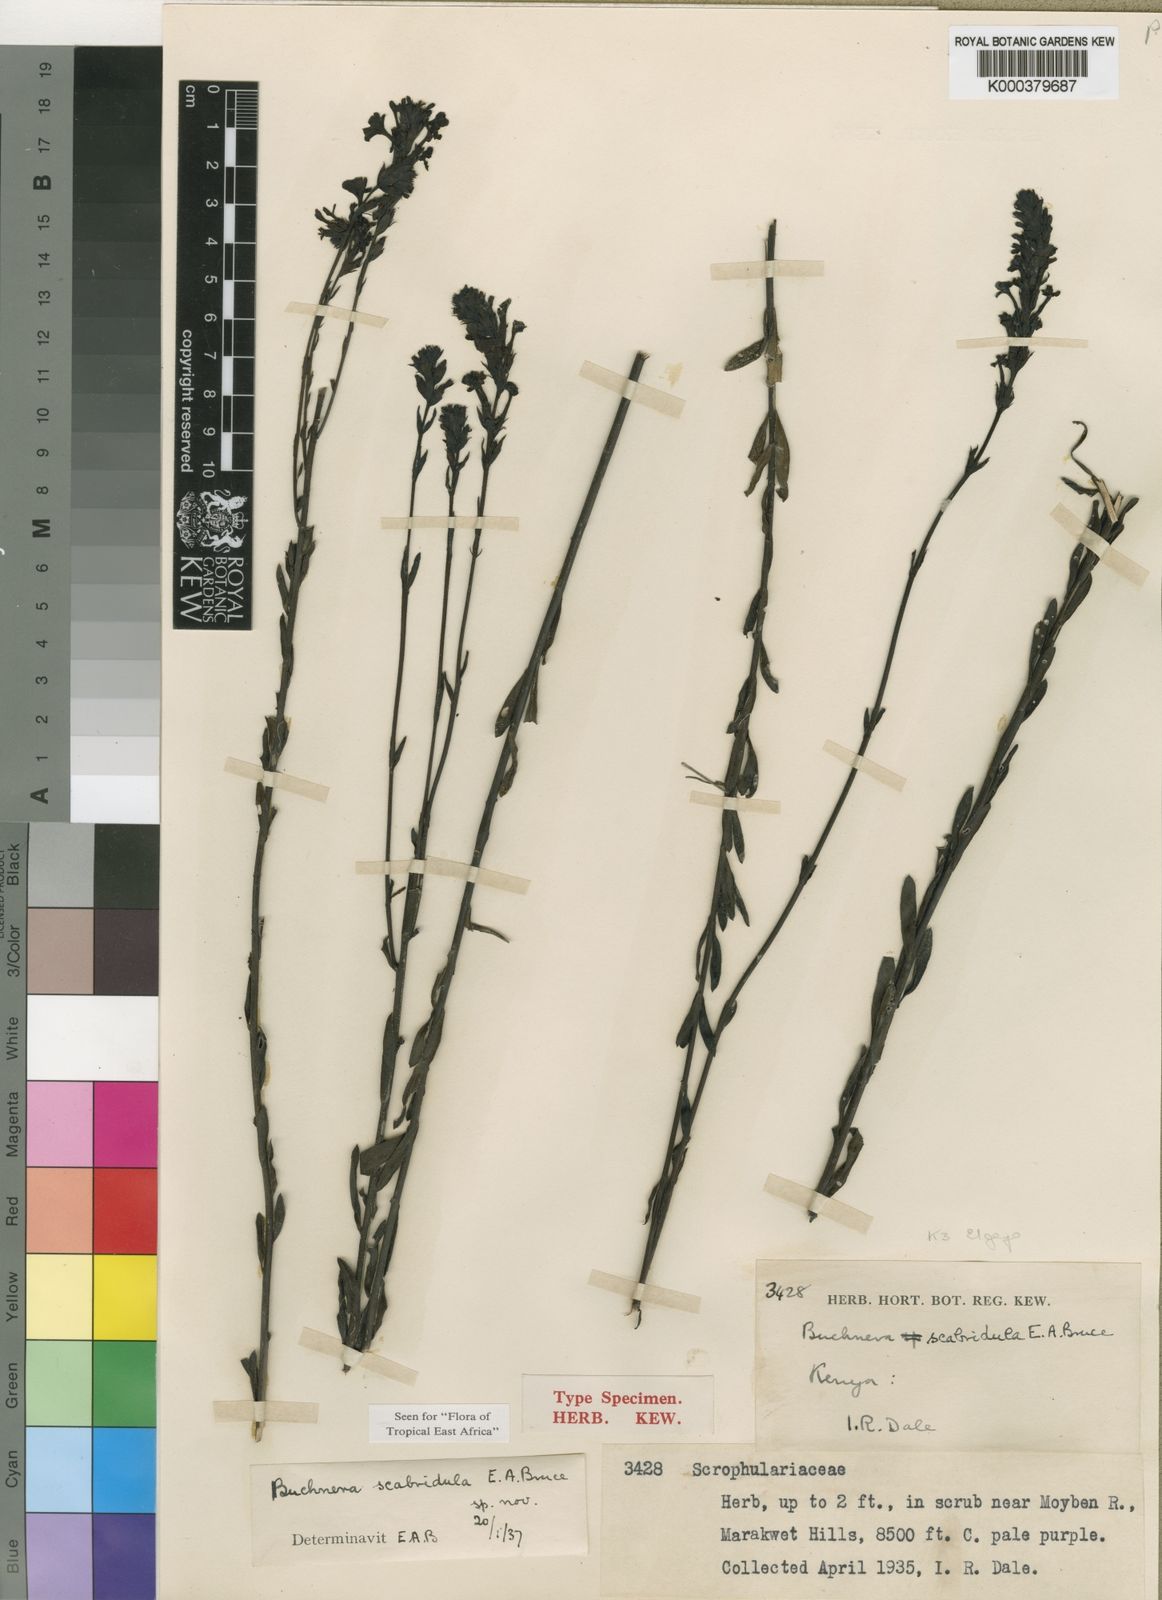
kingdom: Plantae
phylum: Tracheophyta
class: Magnoliopsida
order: Lamiales
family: Orobanchaceae
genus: Buchnera
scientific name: Buchnera scabridula
